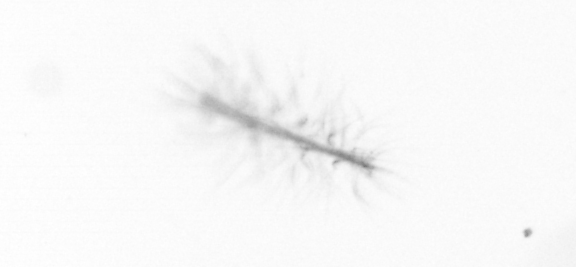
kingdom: Chromista
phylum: Ochrophyta
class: Bacillariophyceae
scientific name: Bacillariophyceae
